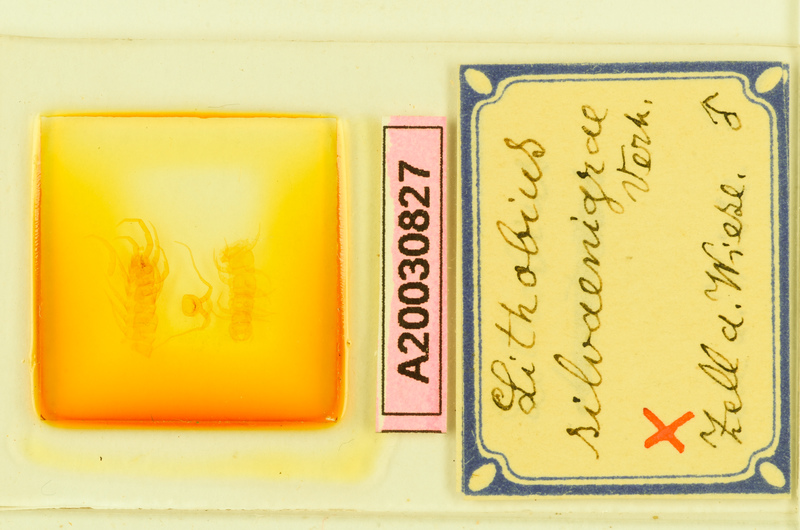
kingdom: Animalia
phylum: Arthropoda
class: Chilopoda
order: Lithobiomorpha
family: Lithobiidae
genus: Lithobius
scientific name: Lithobius subtilis
